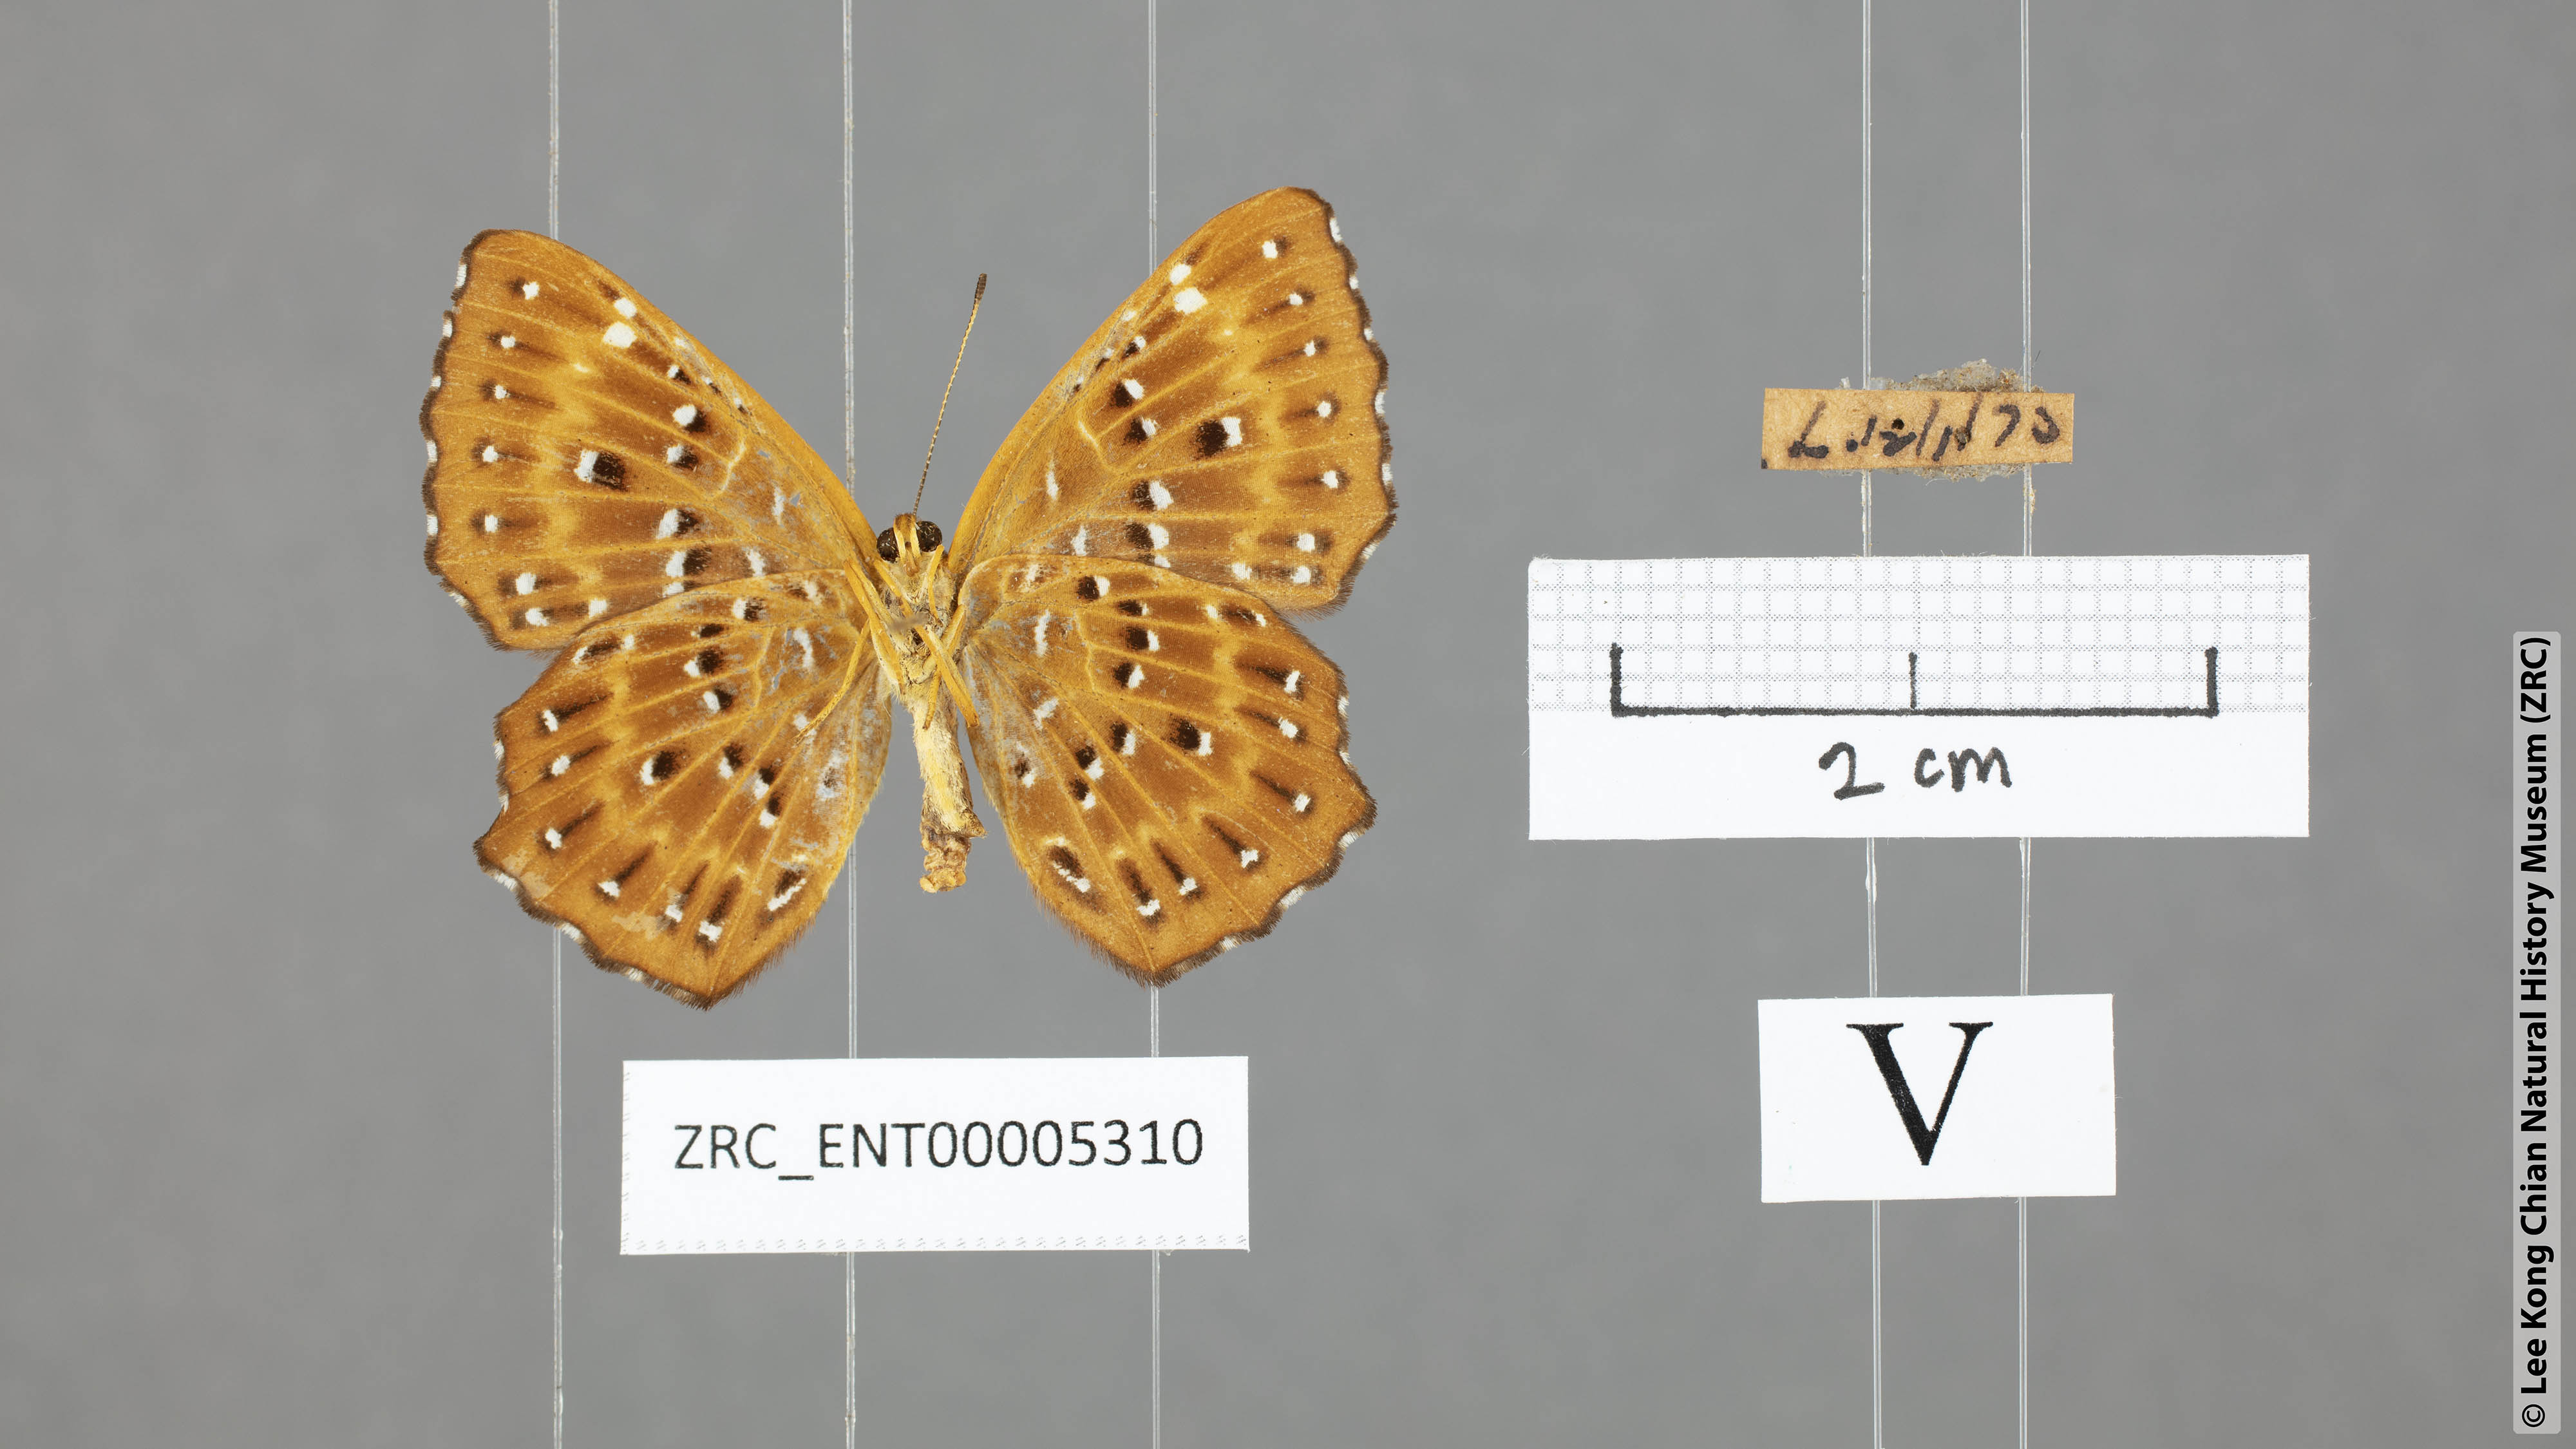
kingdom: Animalia
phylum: Arthropoda
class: Insecta
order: Lepidoptera
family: Riodinidae
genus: Zemeros
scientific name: Zemeros flegyas
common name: Punchinello
